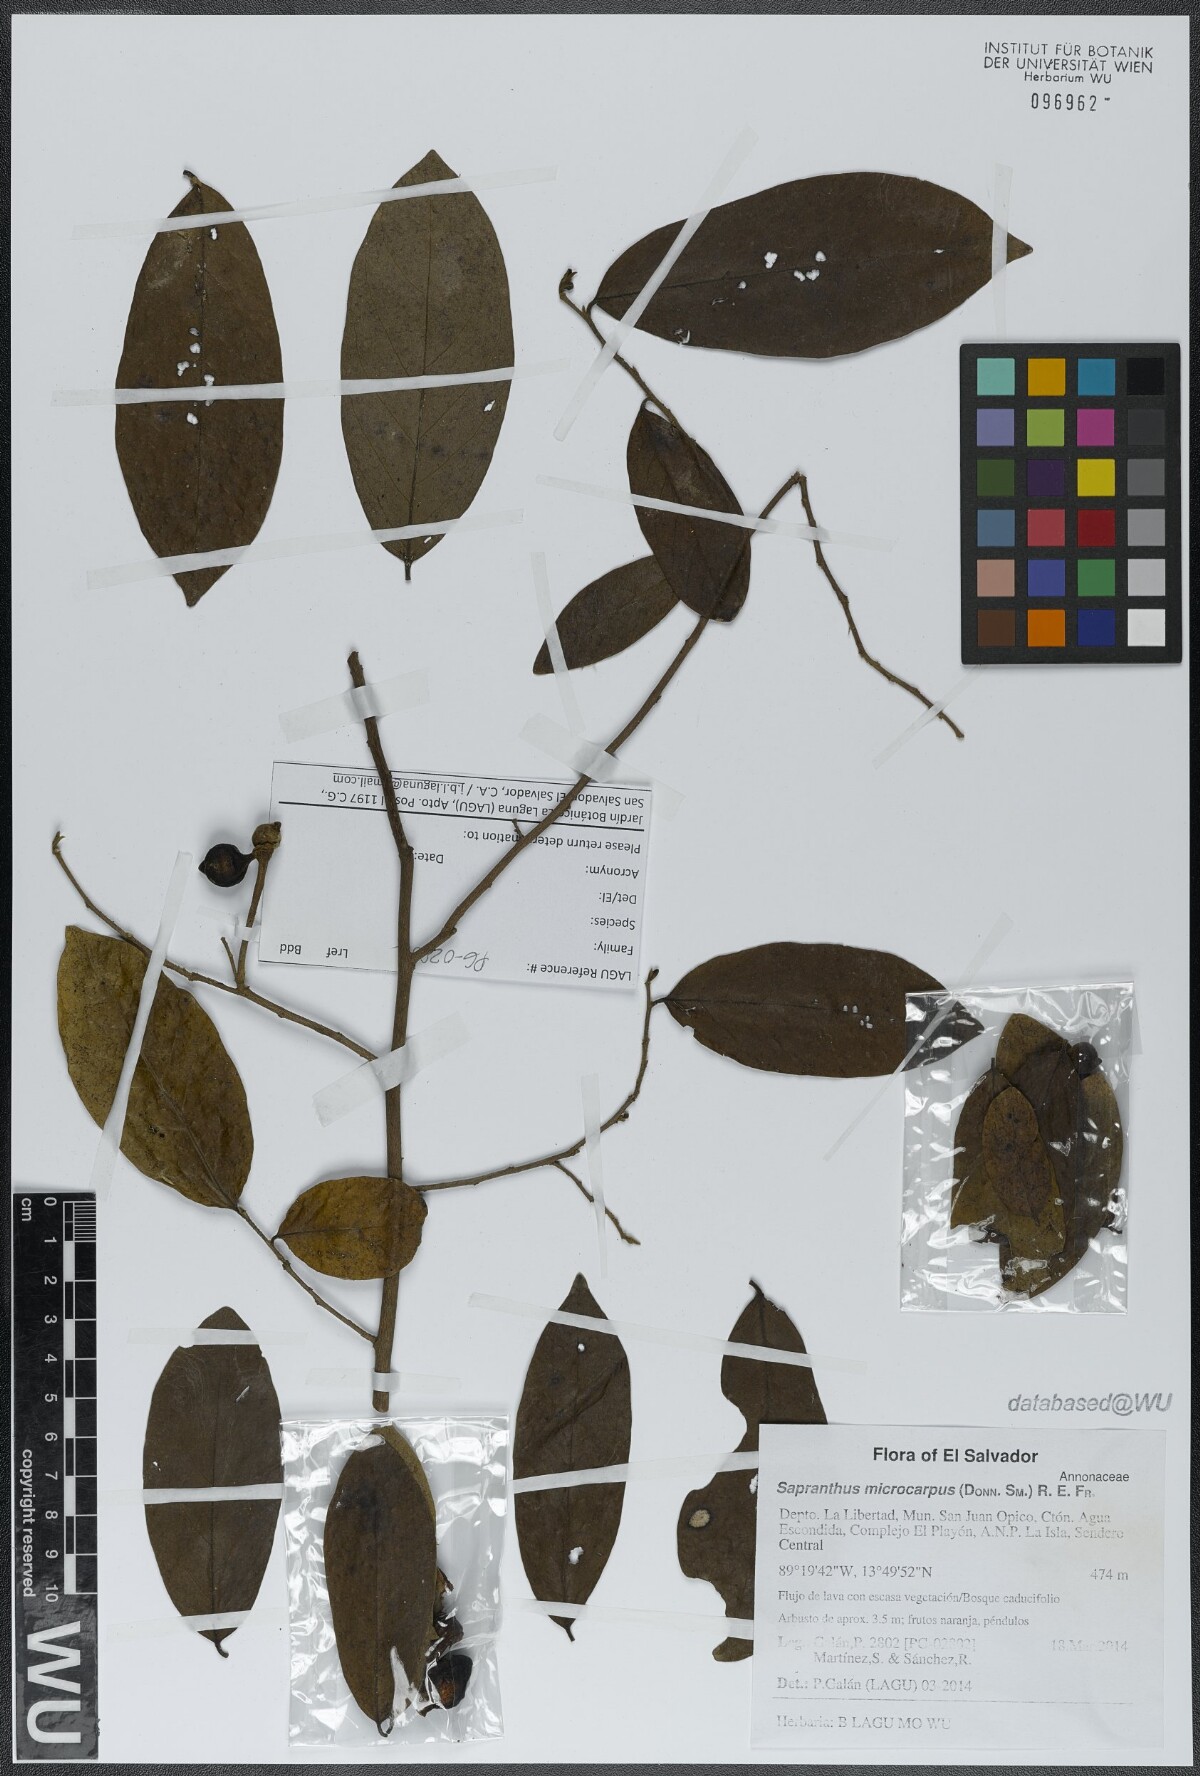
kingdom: Plantae
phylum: Tracheophyta
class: Magnoliopsida
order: Magnoliales
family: Annonaceae
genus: Sapranthus
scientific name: Sapranthus microcarpus
